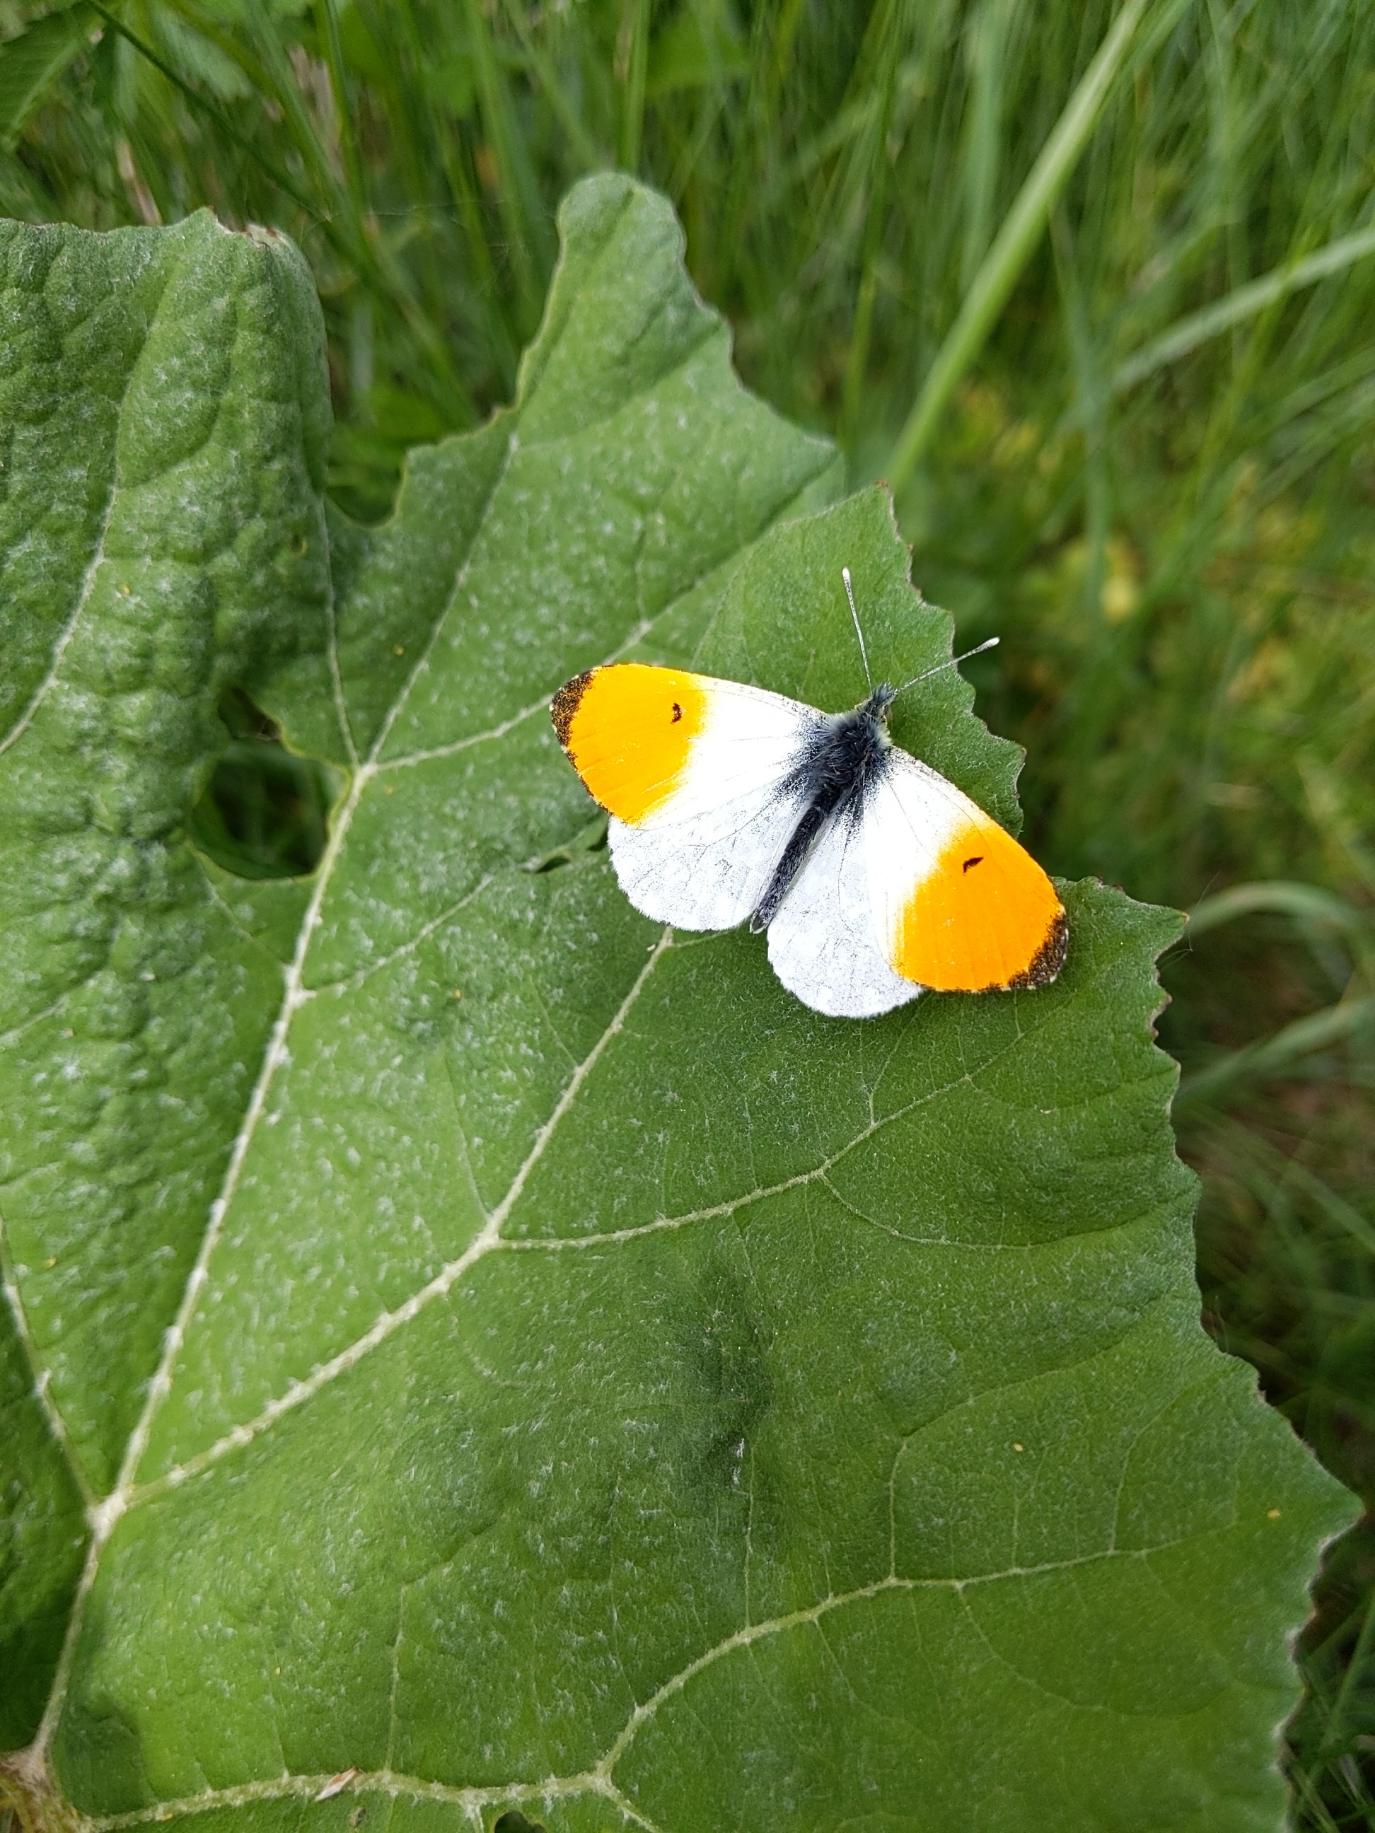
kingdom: Animalia
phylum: Arthropoda
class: Insecta
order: Lepidoptera
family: Pieridae
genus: Anthocharis
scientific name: Anthocharis cardamines
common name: Aurora
